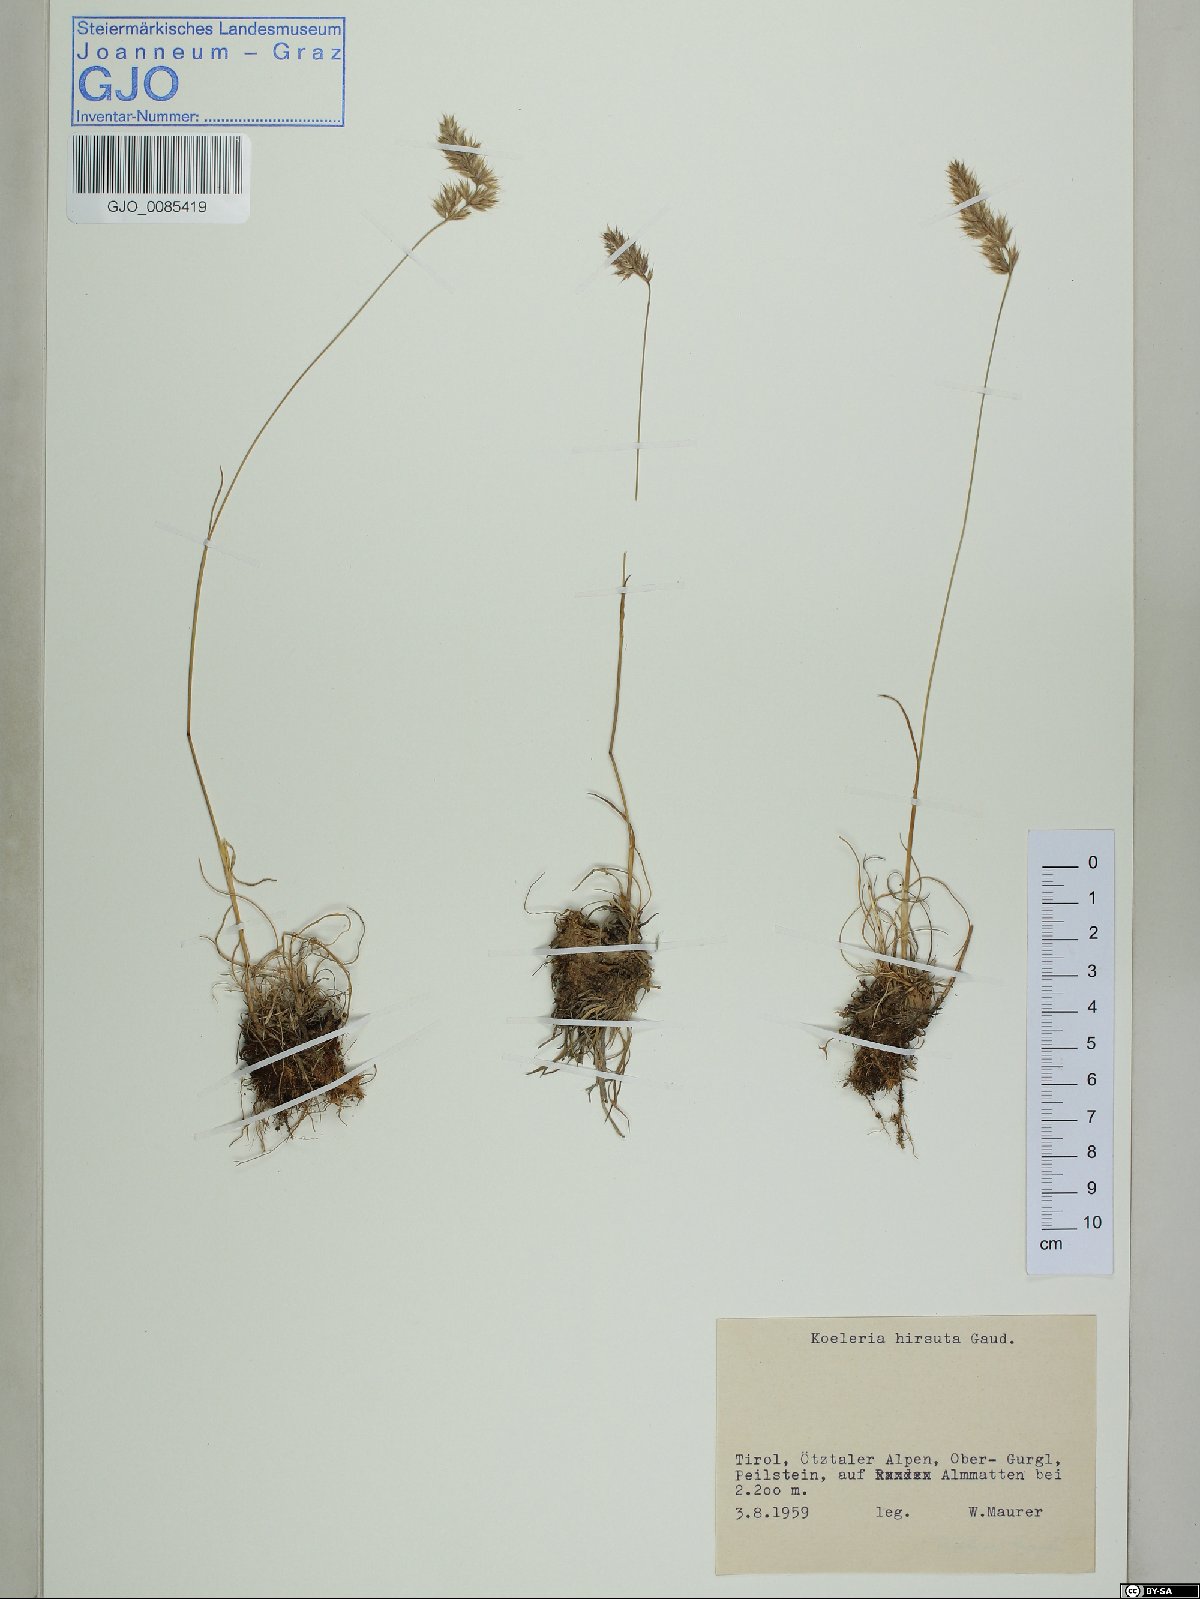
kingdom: Plantae
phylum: Tracheophyta
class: Liliopsida
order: Poales
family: Poaceae
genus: Koeleria
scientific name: Koeleria hirsuta
